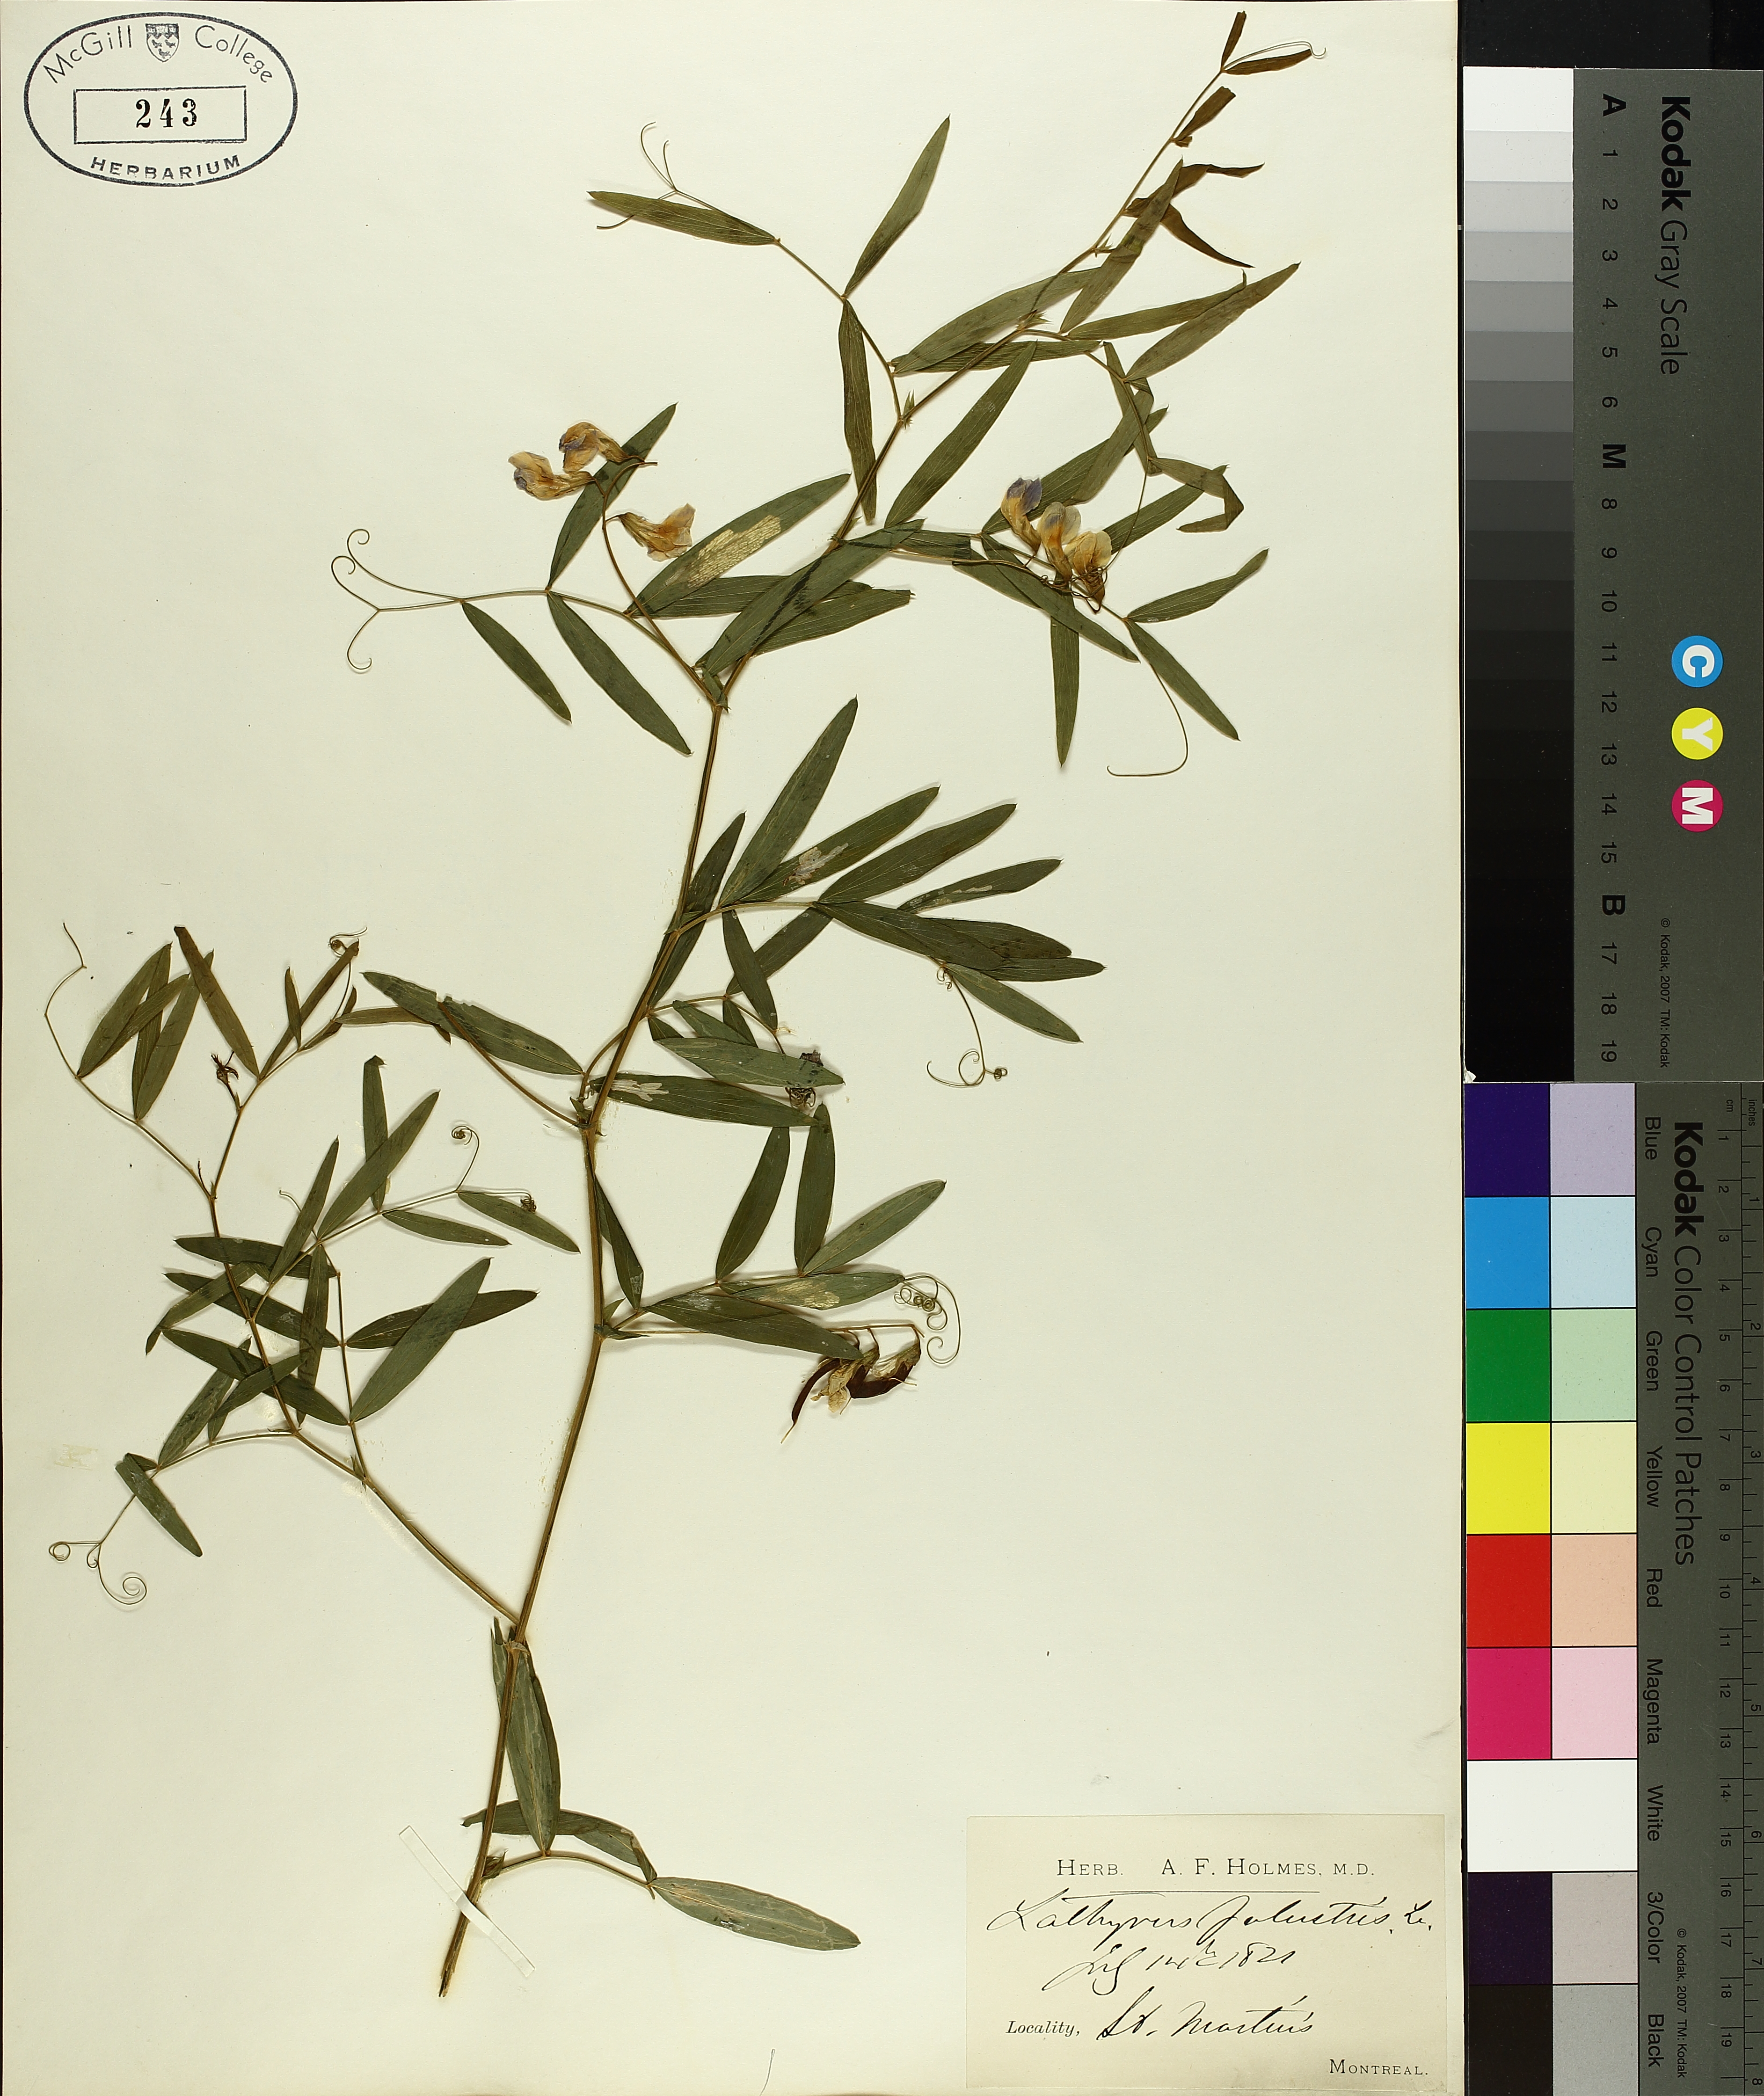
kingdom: Plantae
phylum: Tracheophyta
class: Magnoliopsida
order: Fabales
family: Fabaceae
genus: Lathyrus
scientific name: Lathyrus palustris
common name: Marsh pea
